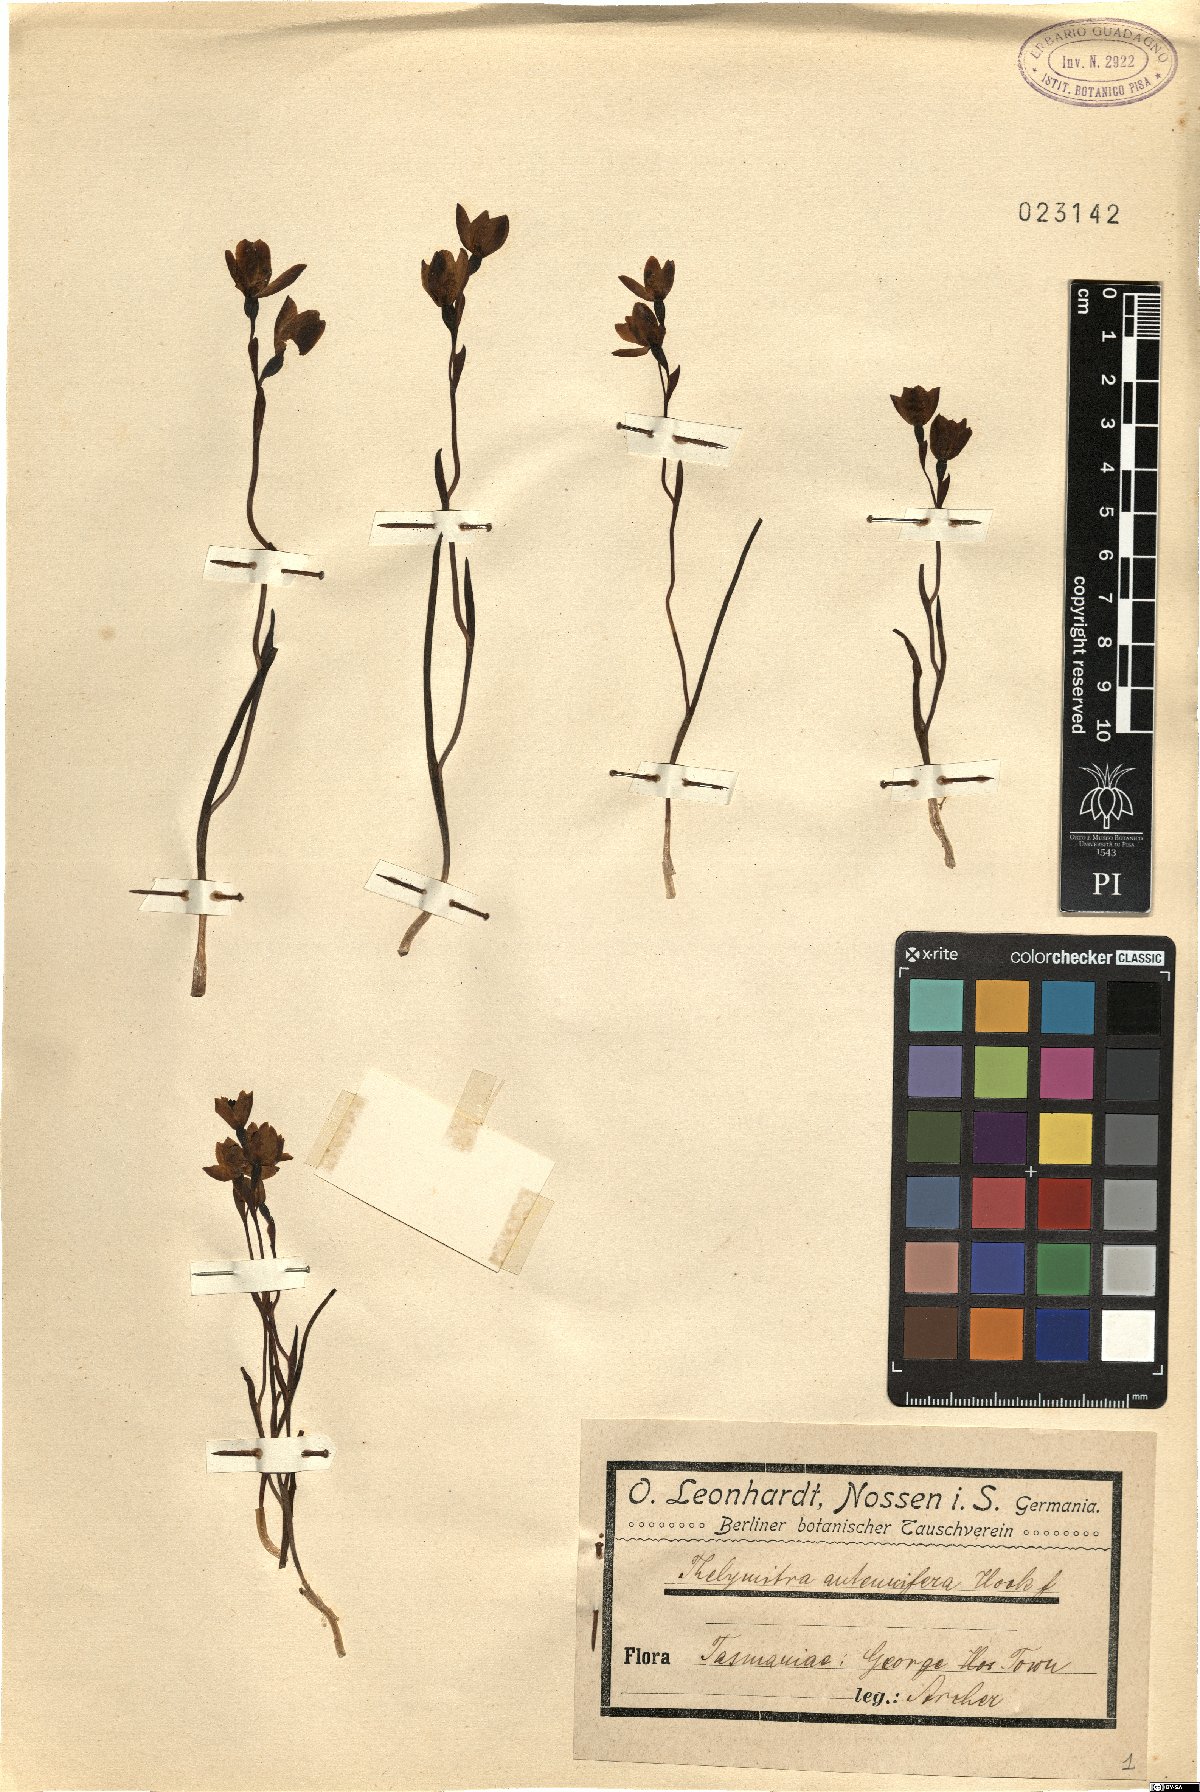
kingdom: Plantae
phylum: Tracheophyta
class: Liliopsida
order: Asparagales
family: Orchidaceae
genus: Thelymitra
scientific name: Thelymitra antennifera
